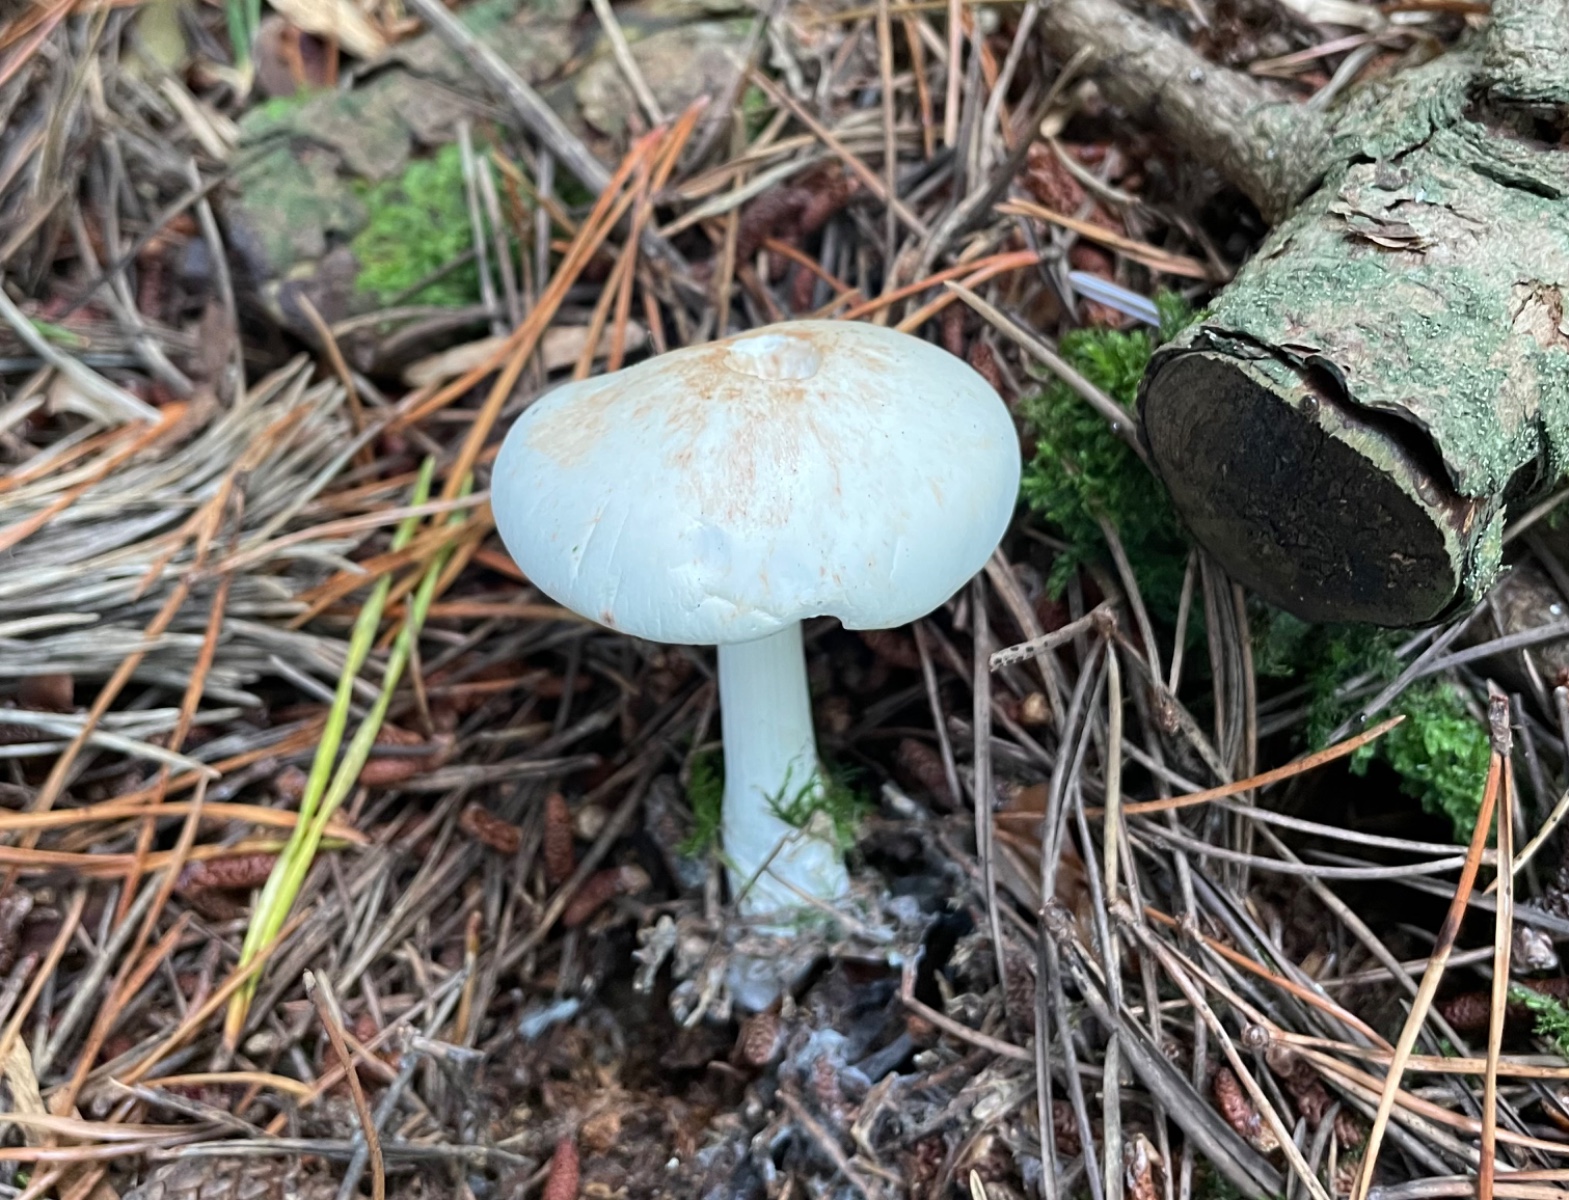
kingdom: Fungi
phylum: Basidiomycota
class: Agaricomycetes
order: Agaricales
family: Omphalotaceae
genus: Rhodocollybia
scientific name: Rhodocollybia maculata
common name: plettet fladhat
